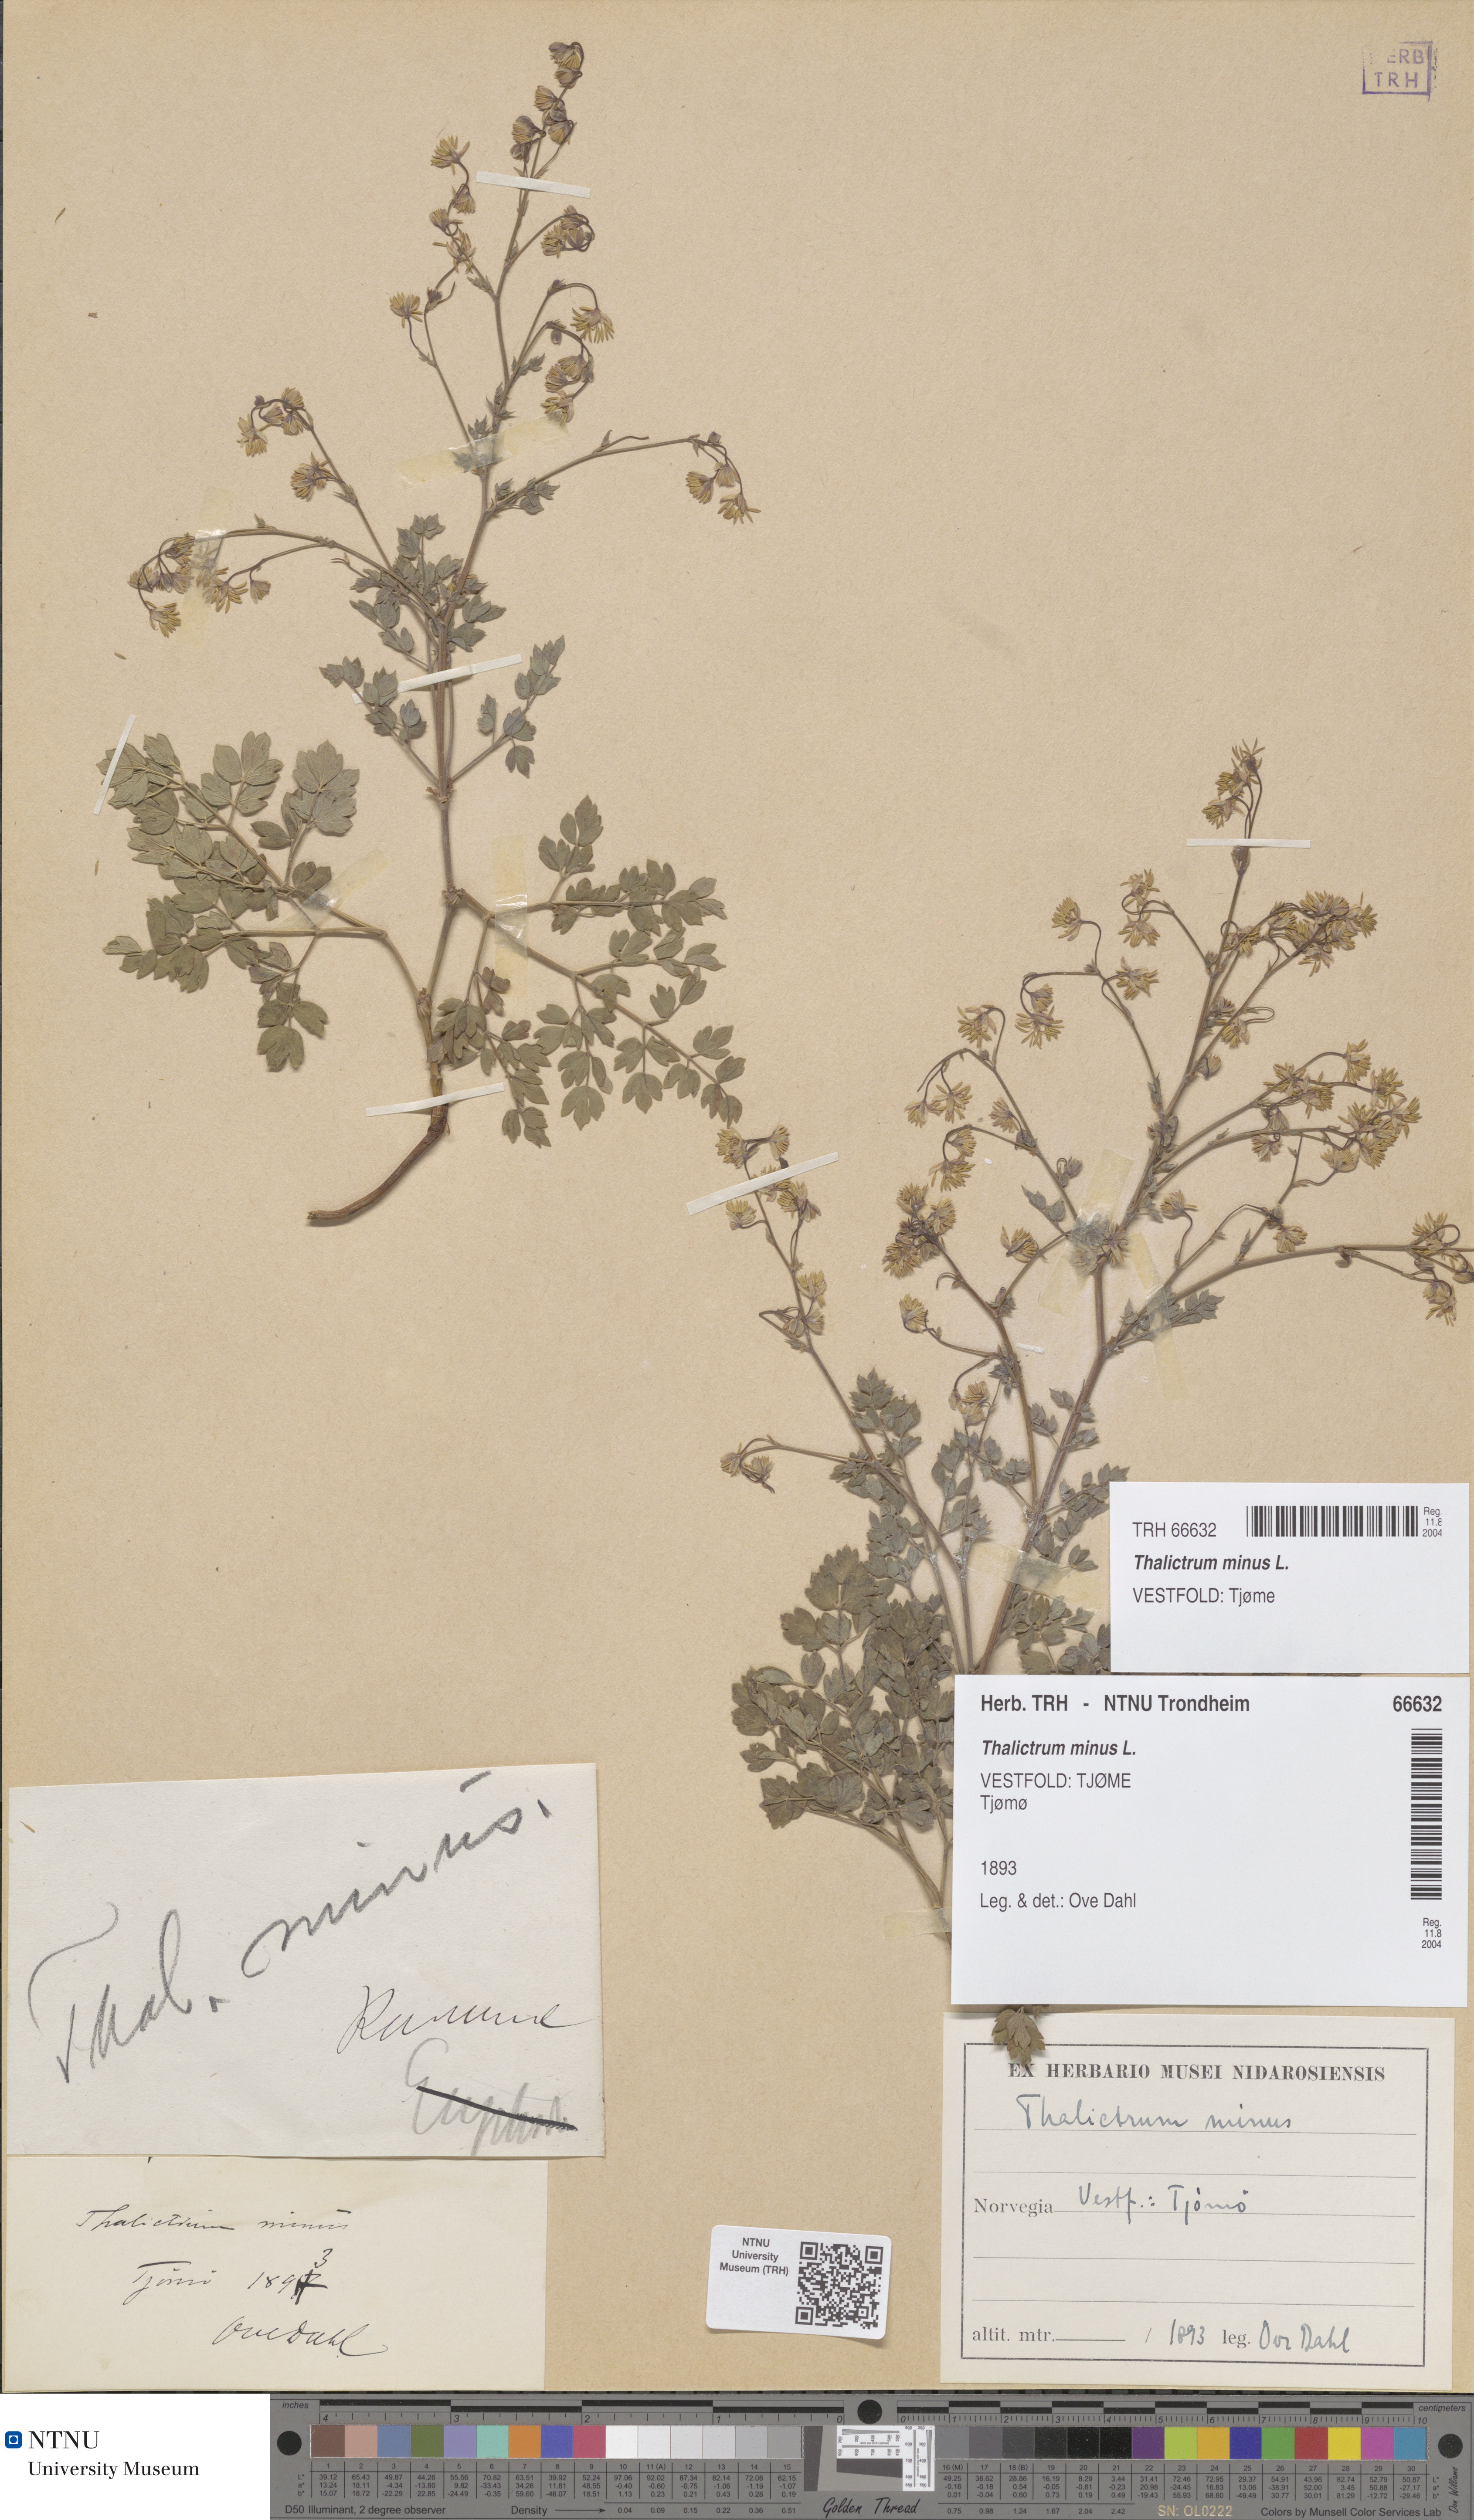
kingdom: Plantae
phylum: Tracheophyta
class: Magnoliopsida
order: Ranunculales
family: Ranunculaceae
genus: Thalictrum
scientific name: Thalictrum minus
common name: Lesser meadow-rue
